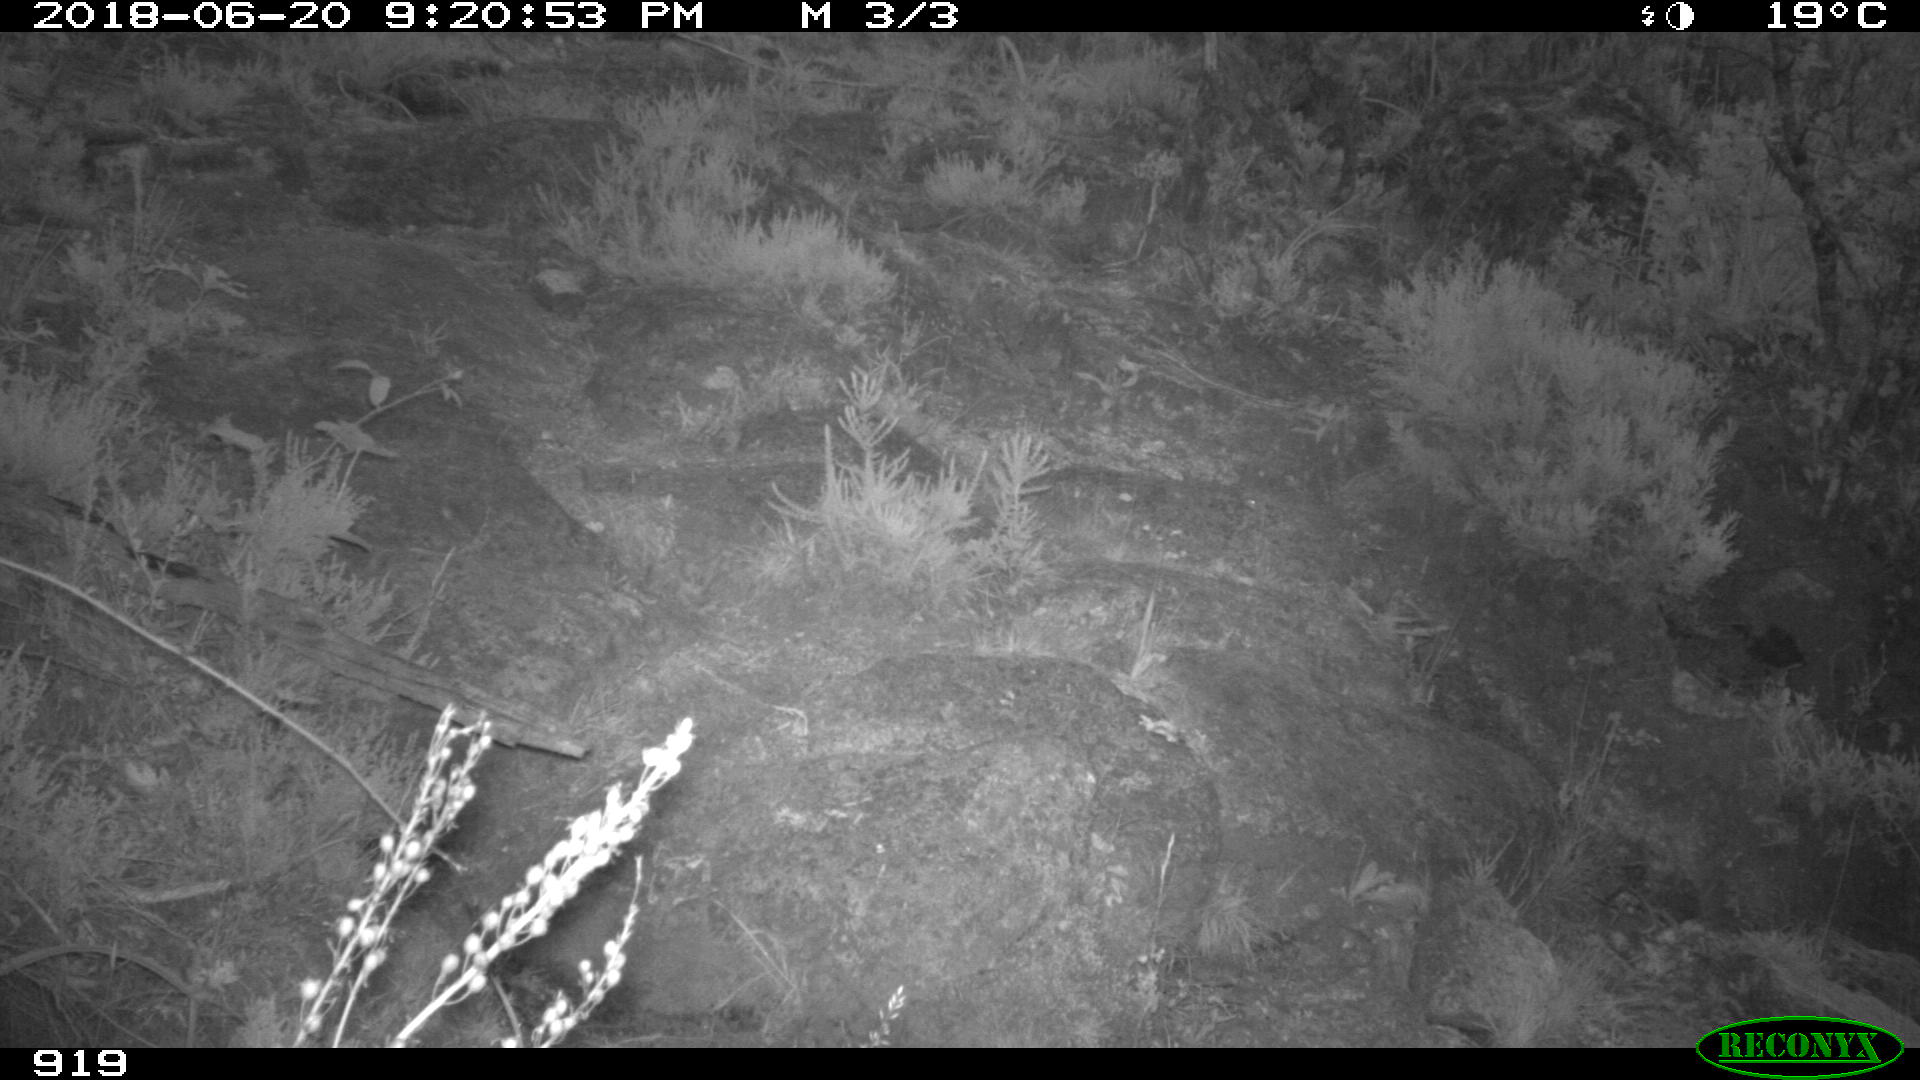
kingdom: Animalia
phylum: Chordata
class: Mammalia
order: Artiodactyla
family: Bovidae
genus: Bos
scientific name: Bos taurus
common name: Domesticated cattle
